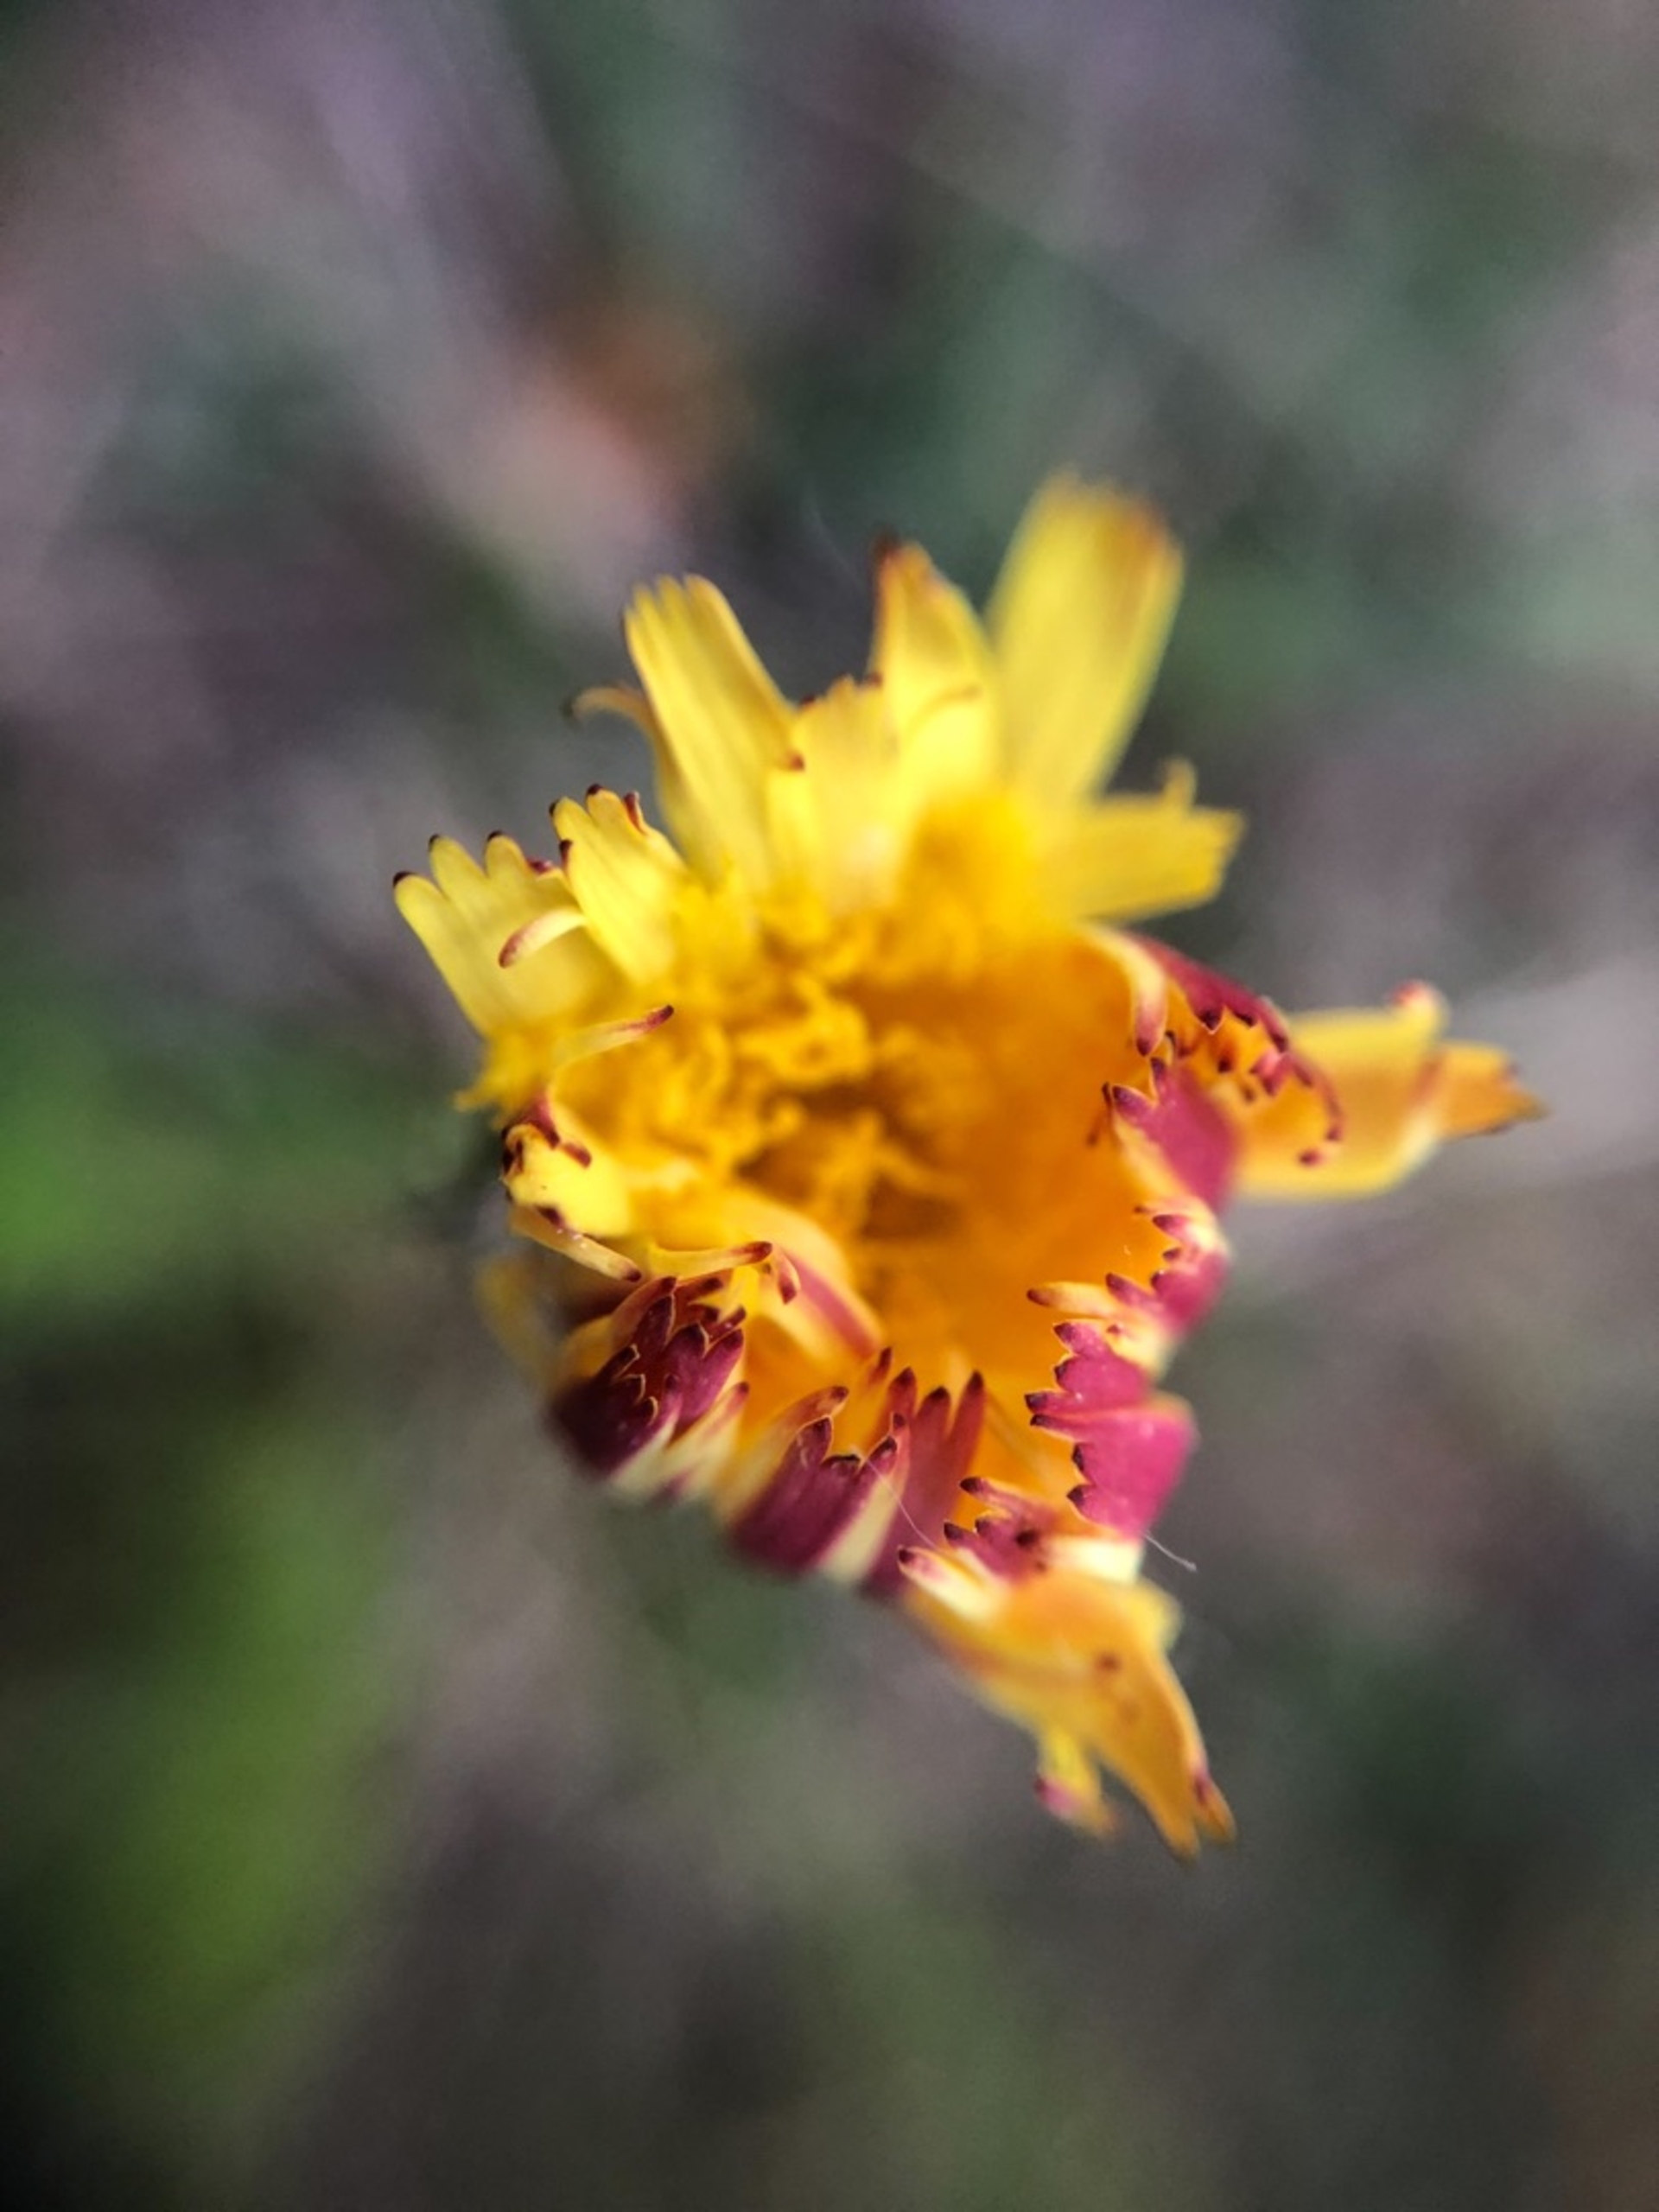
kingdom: Plantae
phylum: Tracheophyta
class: Magnoliopsida
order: Asterales
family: Asteraceae
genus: Pilosella
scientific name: Pilosella officinarum
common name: Håret høgeurt
